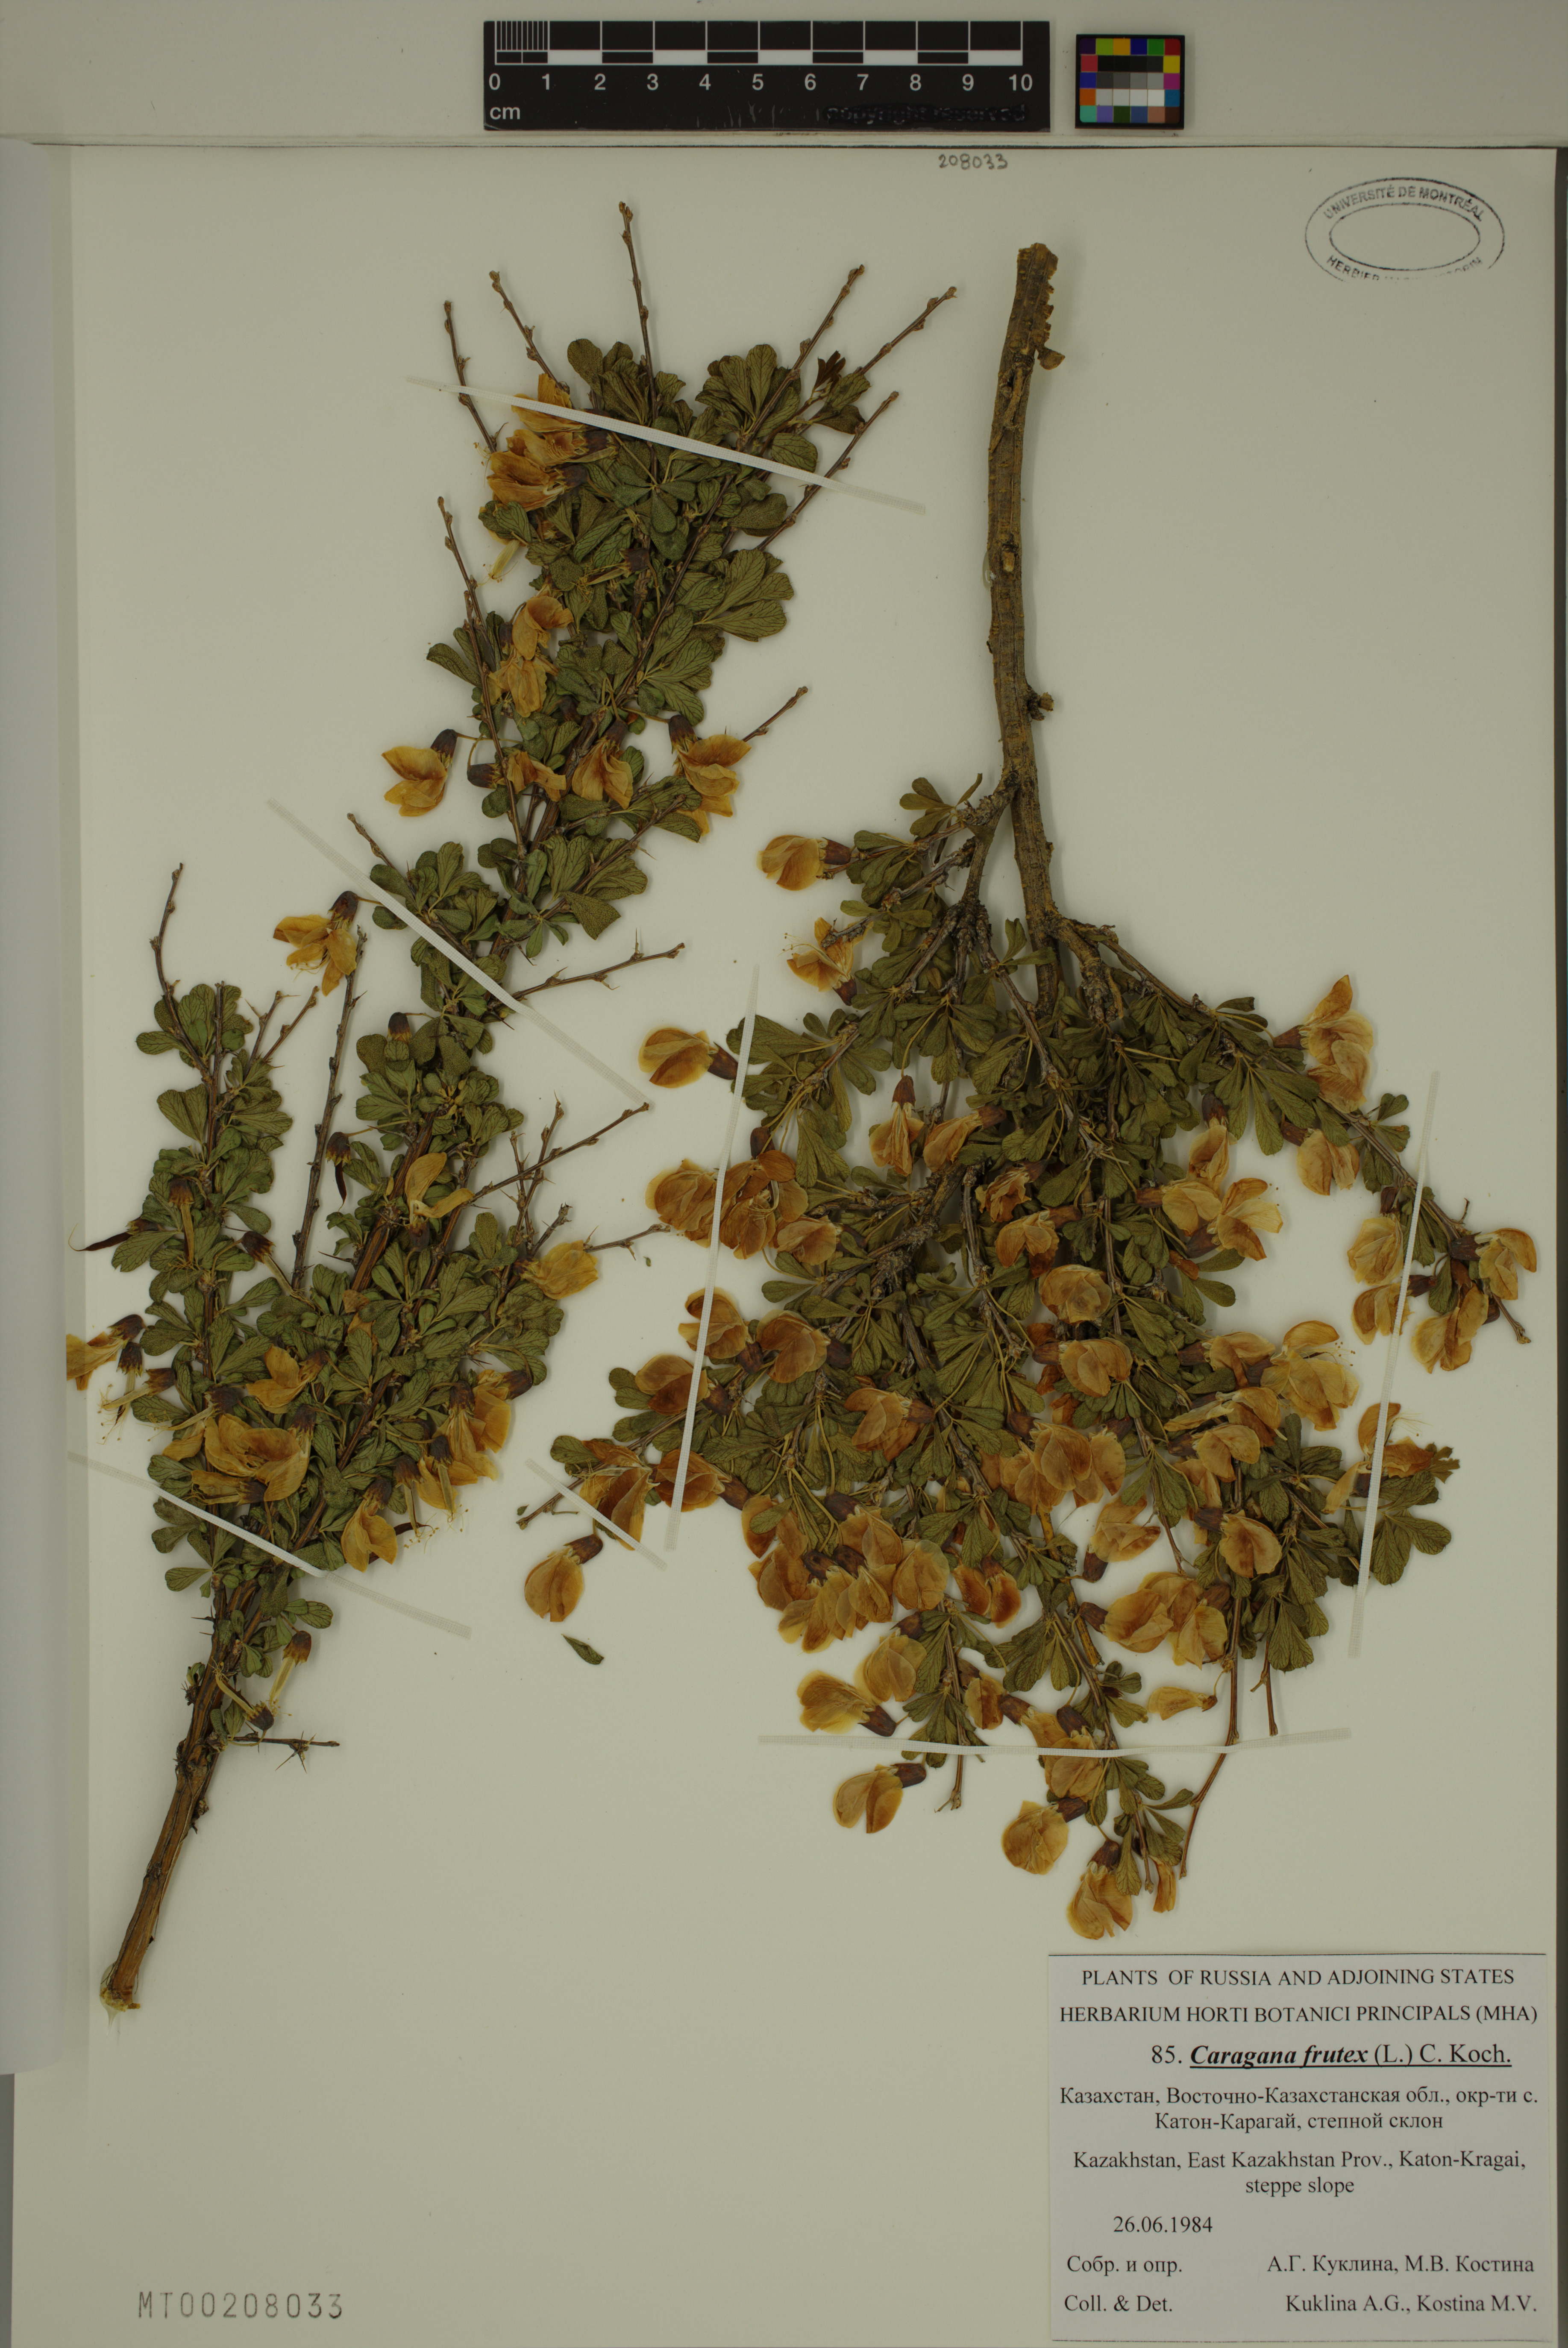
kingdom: Plantae
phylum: Tracheophyta
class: Magnoliopsida
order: Fabales
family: Fabaceae
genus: Caragana
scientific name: Caragana frutex
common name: Russian peashrub
